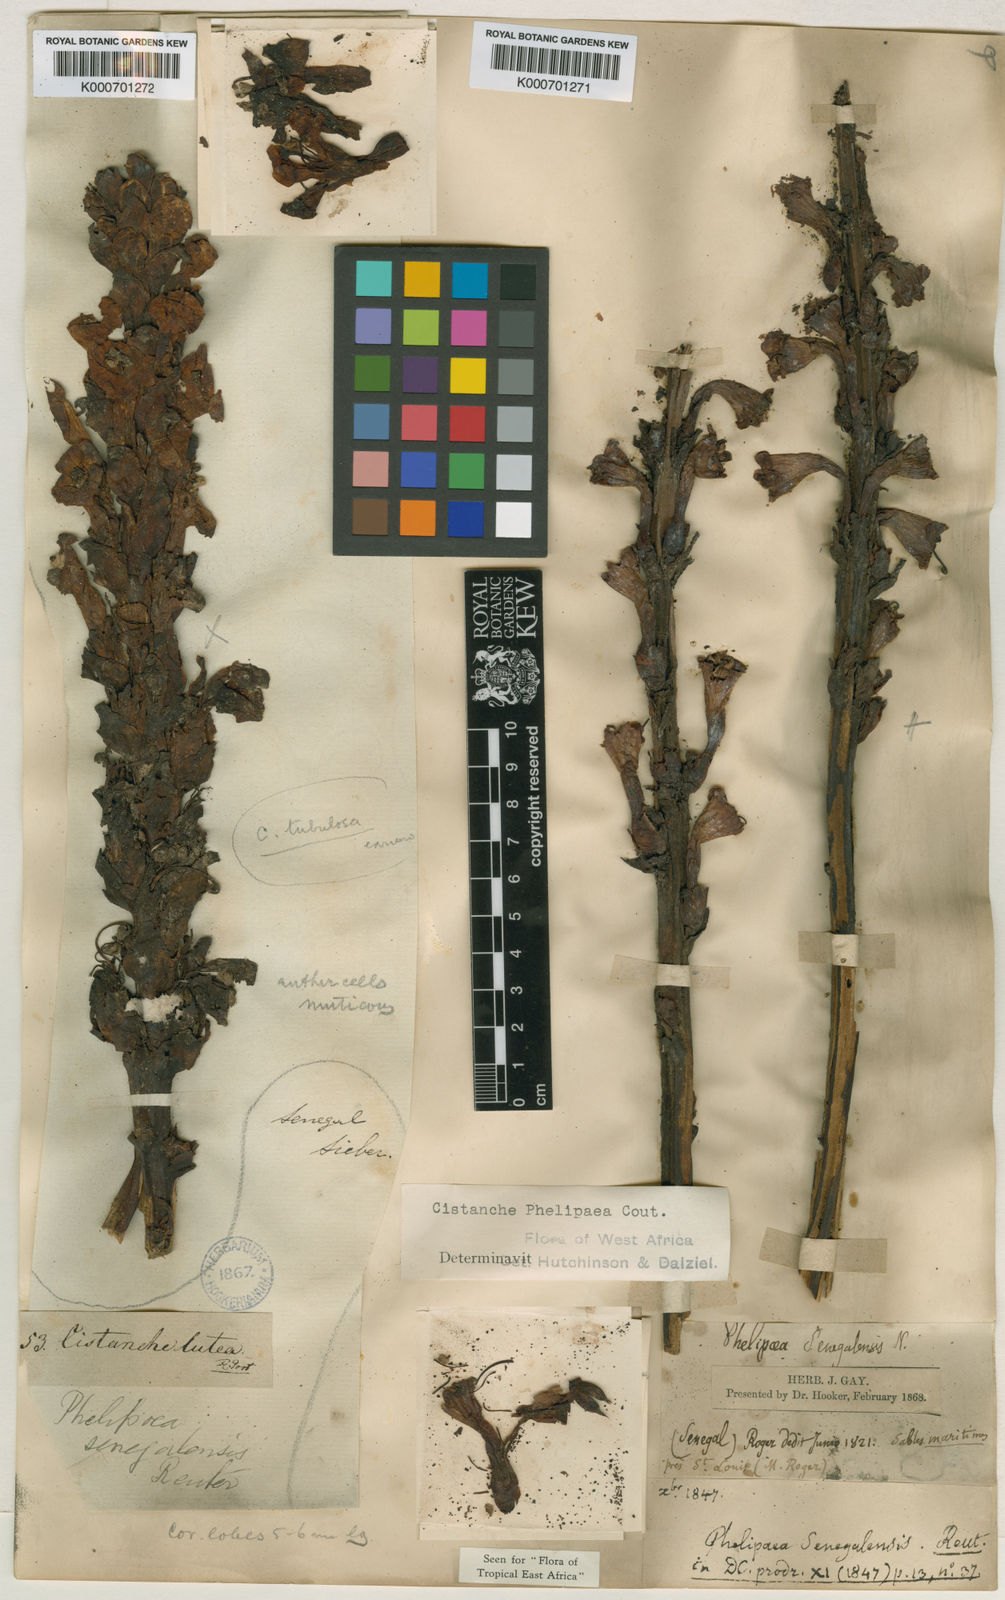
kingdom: Plantae
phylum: Tracheophyta
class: Magnoliopsida
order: Lamiales
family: Orobanchaceae
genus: Cistanche
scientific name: Cistanche senegalensis
